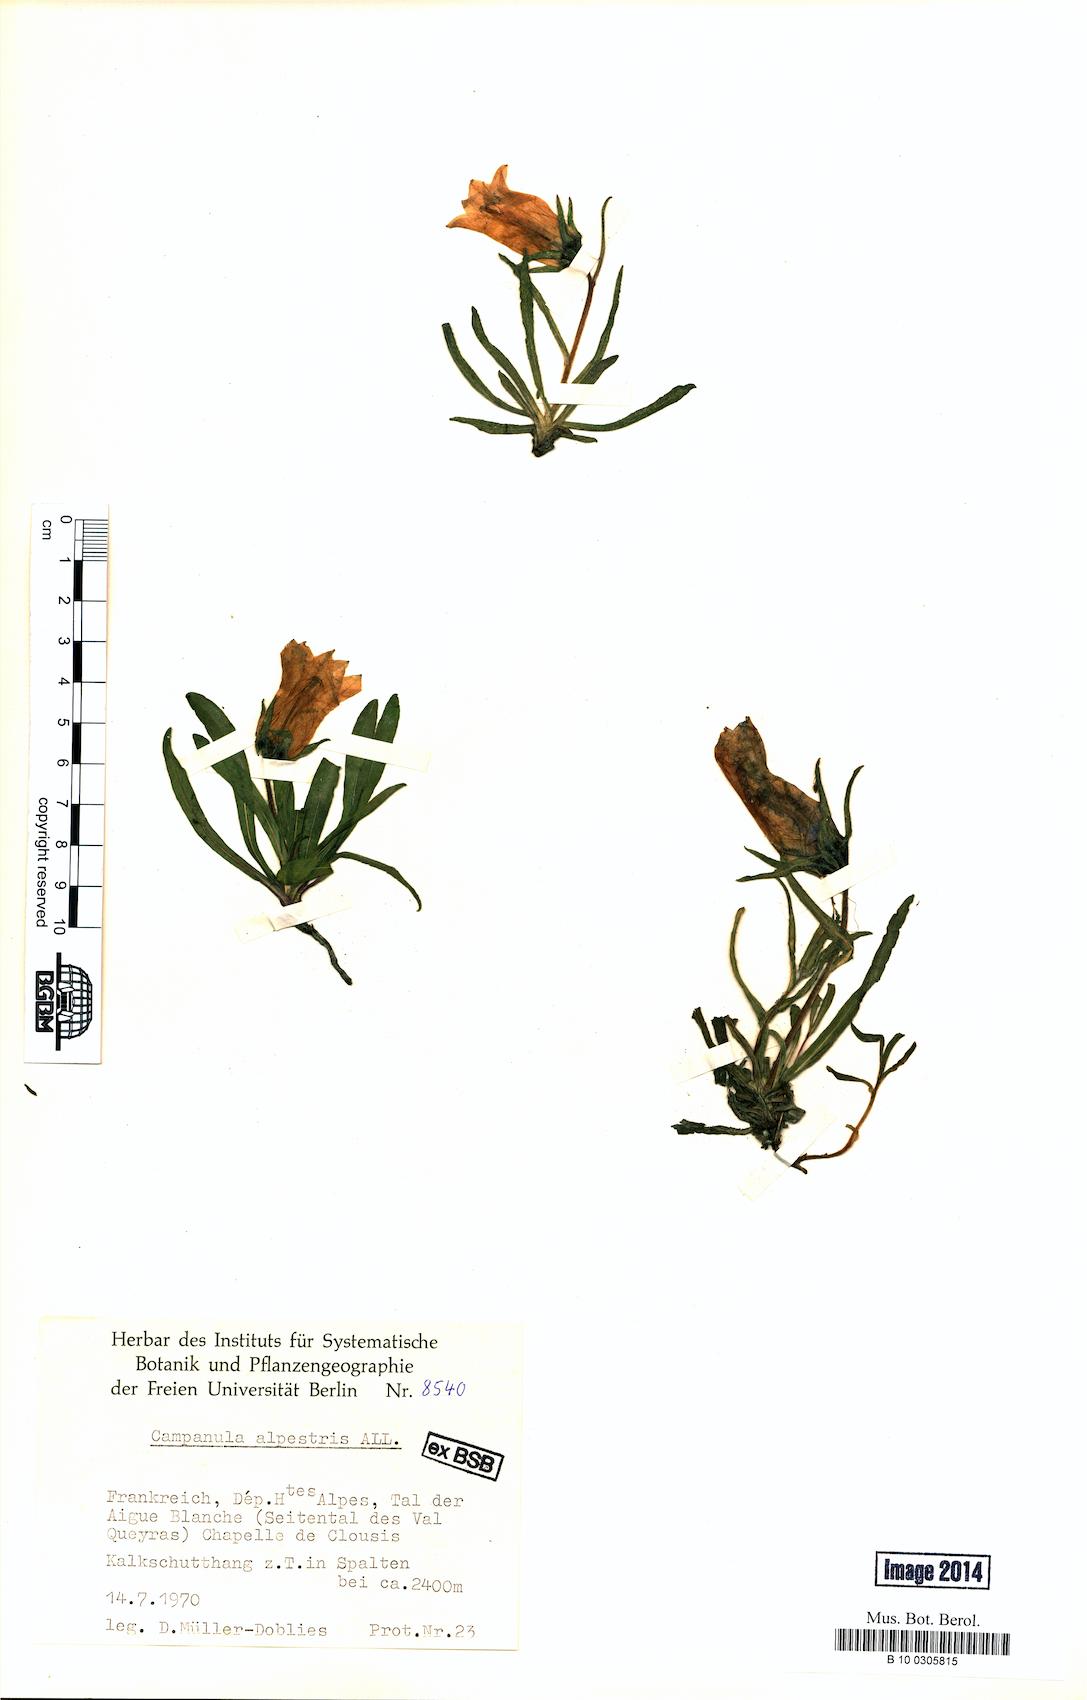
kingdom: Plantae
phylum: Tracheophyta
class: Magnoliopsida
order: Asterales
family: Campanulaceae
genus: Campanula
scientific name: Campanula alpestris
